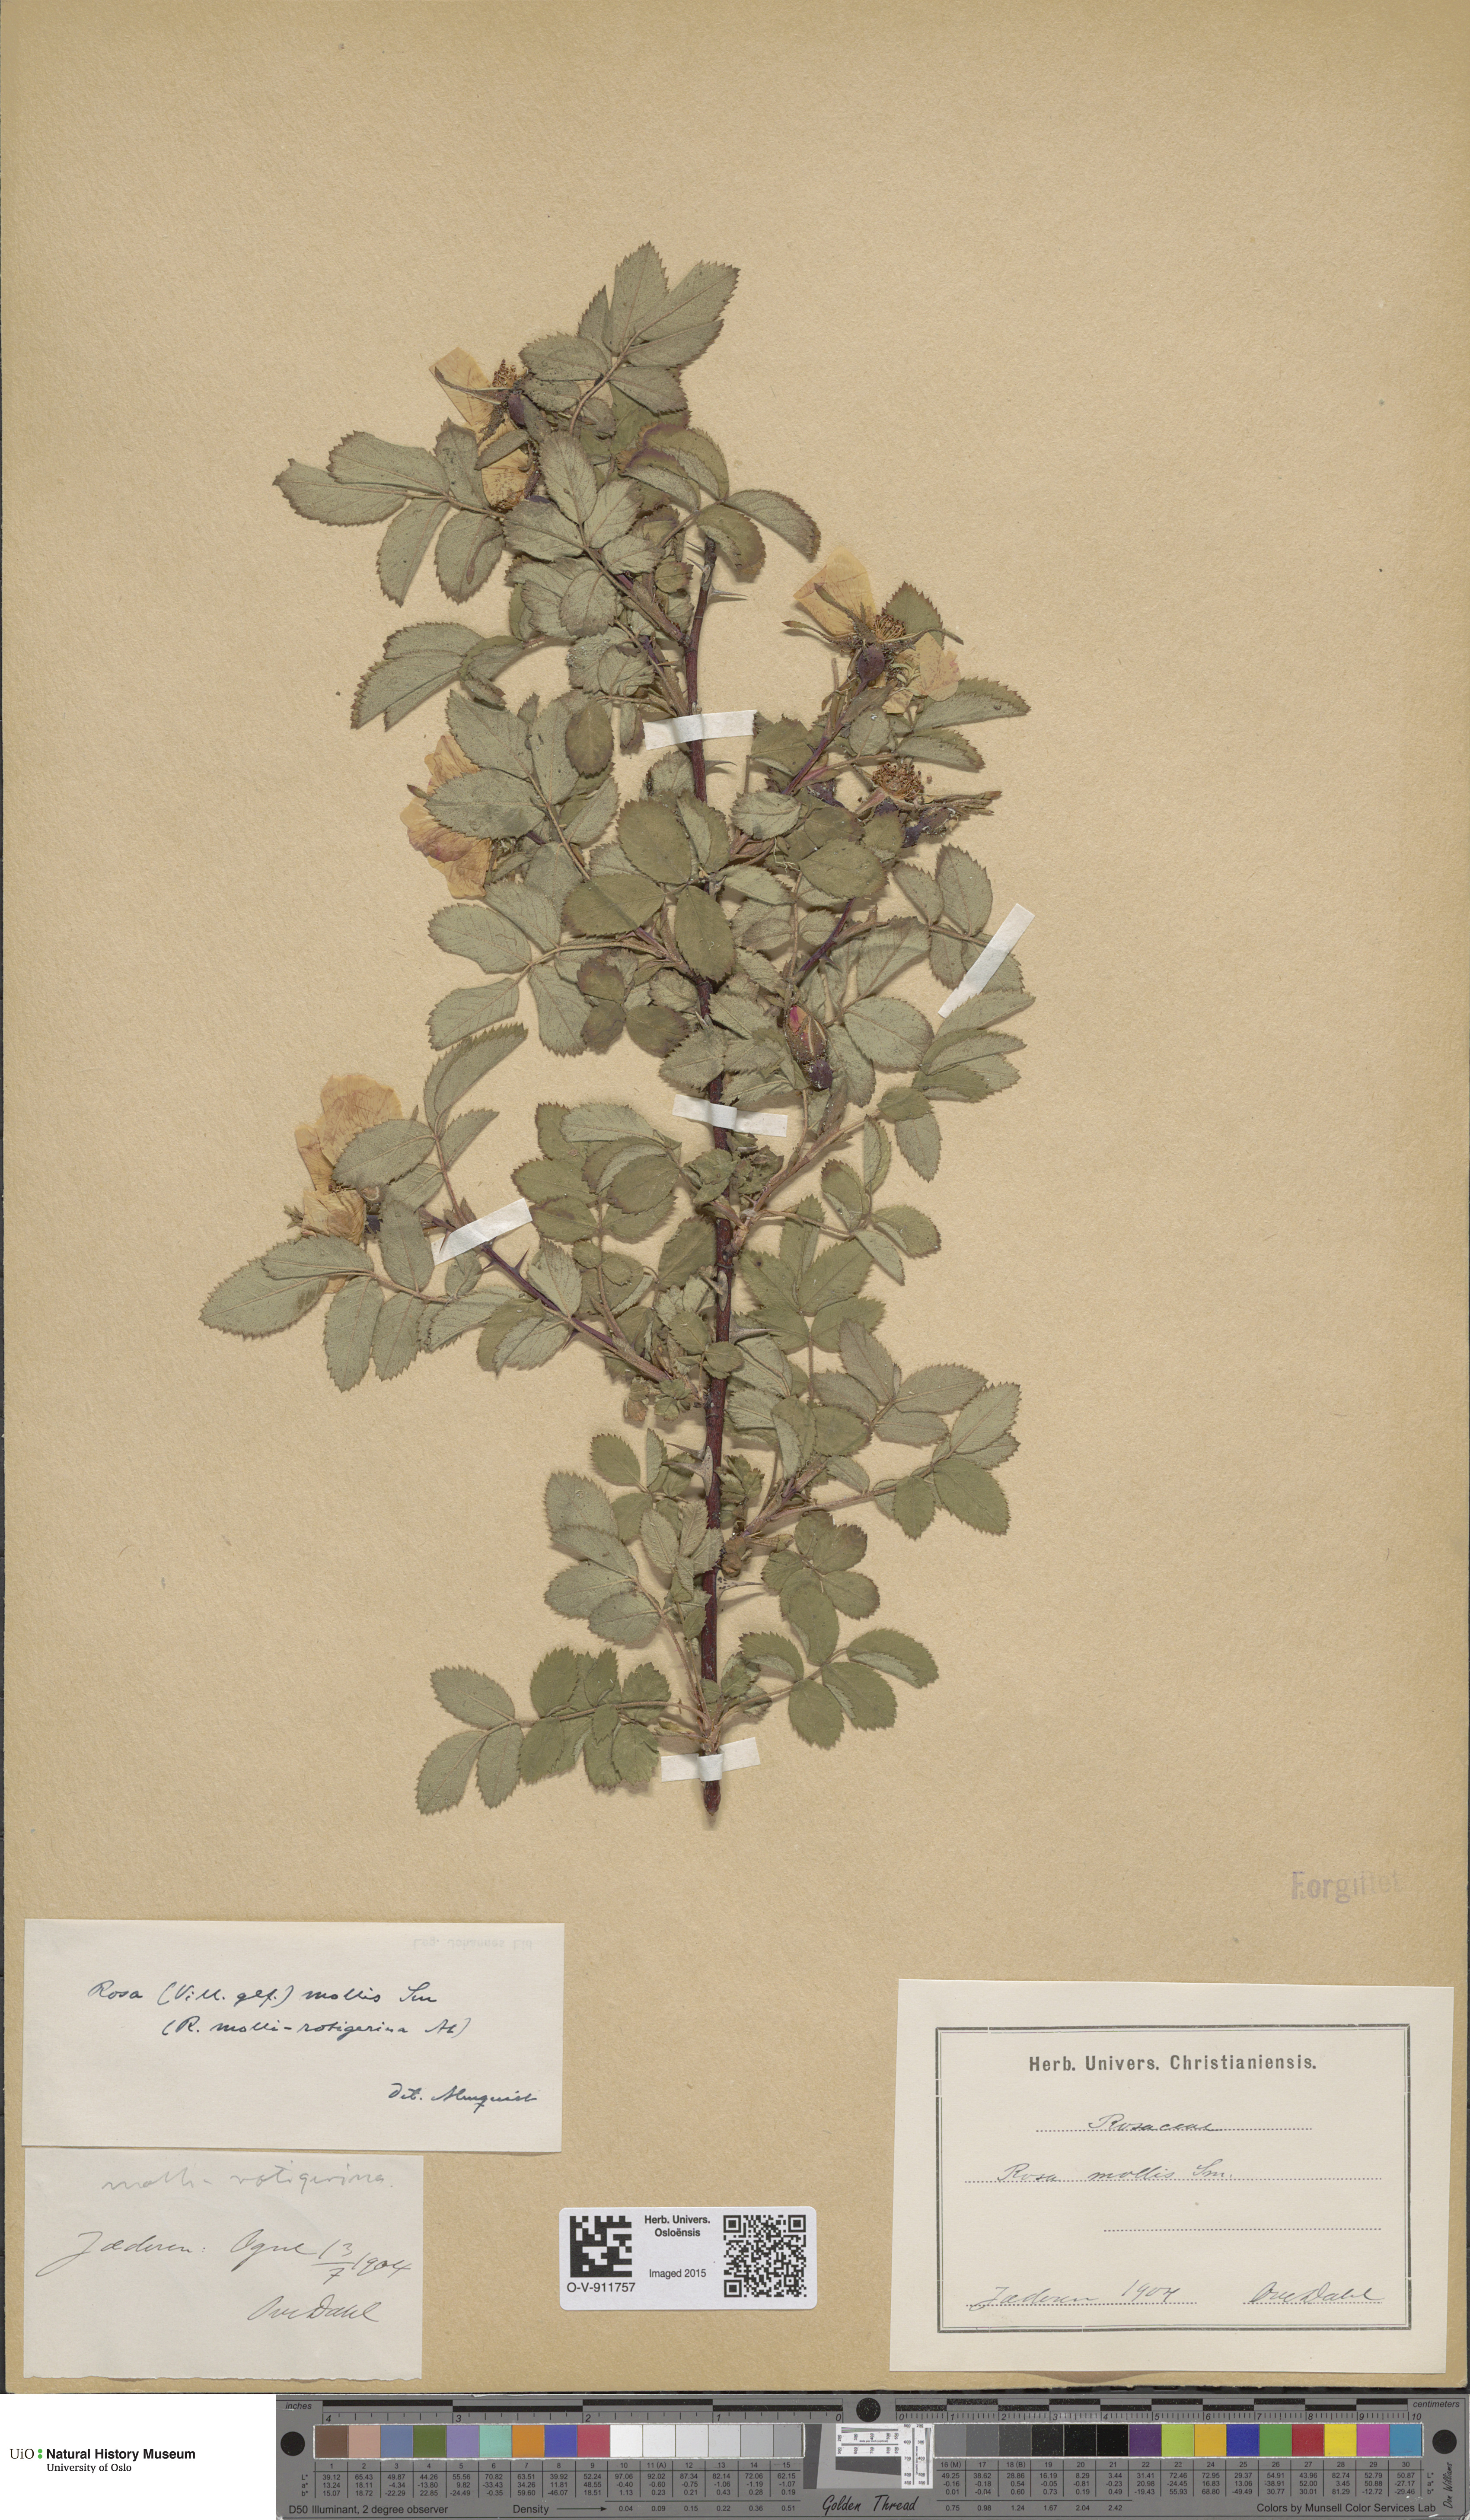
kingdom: Plantae
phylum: Tracheophyta
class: Magnoliopsida
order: Rosales
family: Rosaceae
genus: Rosa
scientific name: Rosa mollis
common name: Rose
